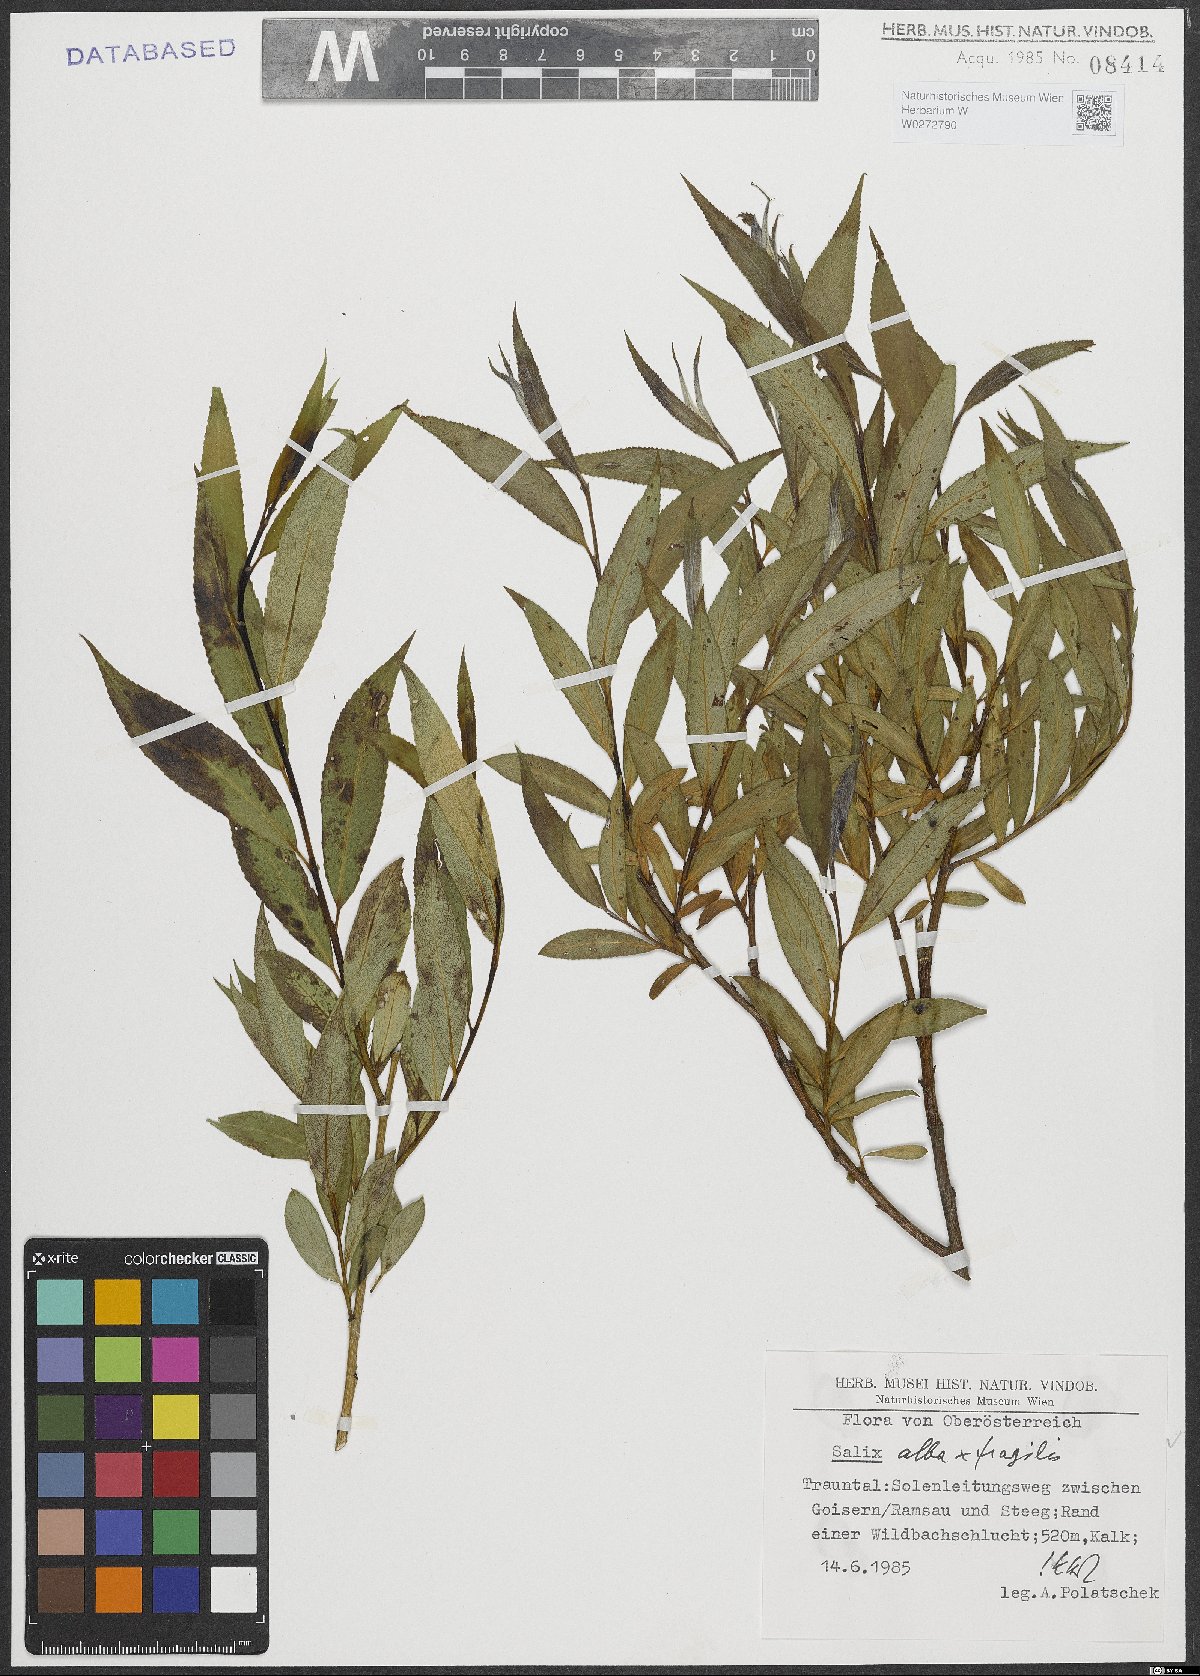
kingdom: Plantae
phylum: Tracheophyta
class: Magnoliopsida
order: Malpighiales
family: Salicaceae
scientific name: Salicaceae
